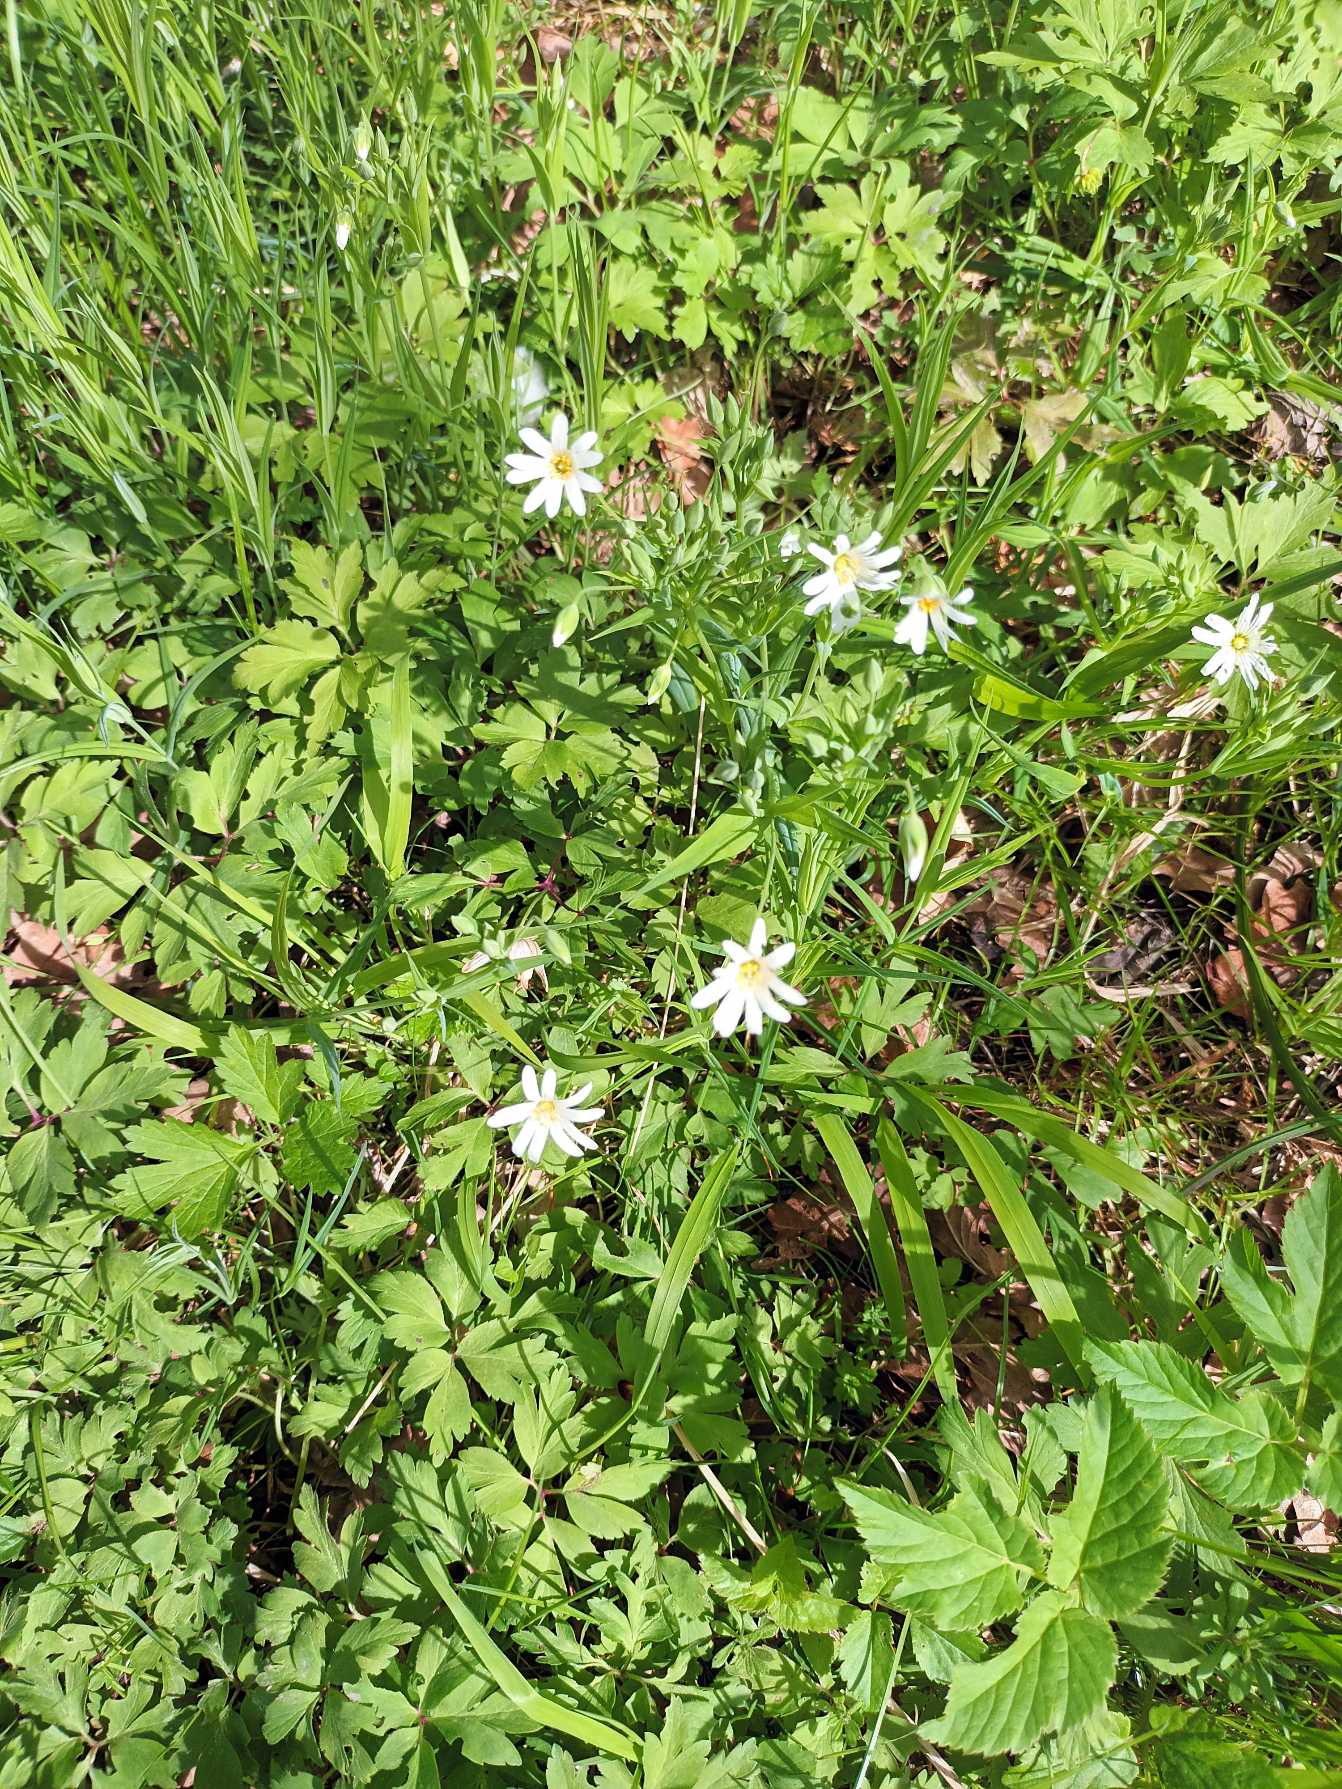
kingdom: Plantae
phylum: Tracheophyta
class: Magnoliopsida
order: Caryophyllales
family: Caryophyllaceae
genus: Rabelera
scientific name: Rabelera holostea
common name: Stor fladstjerne
